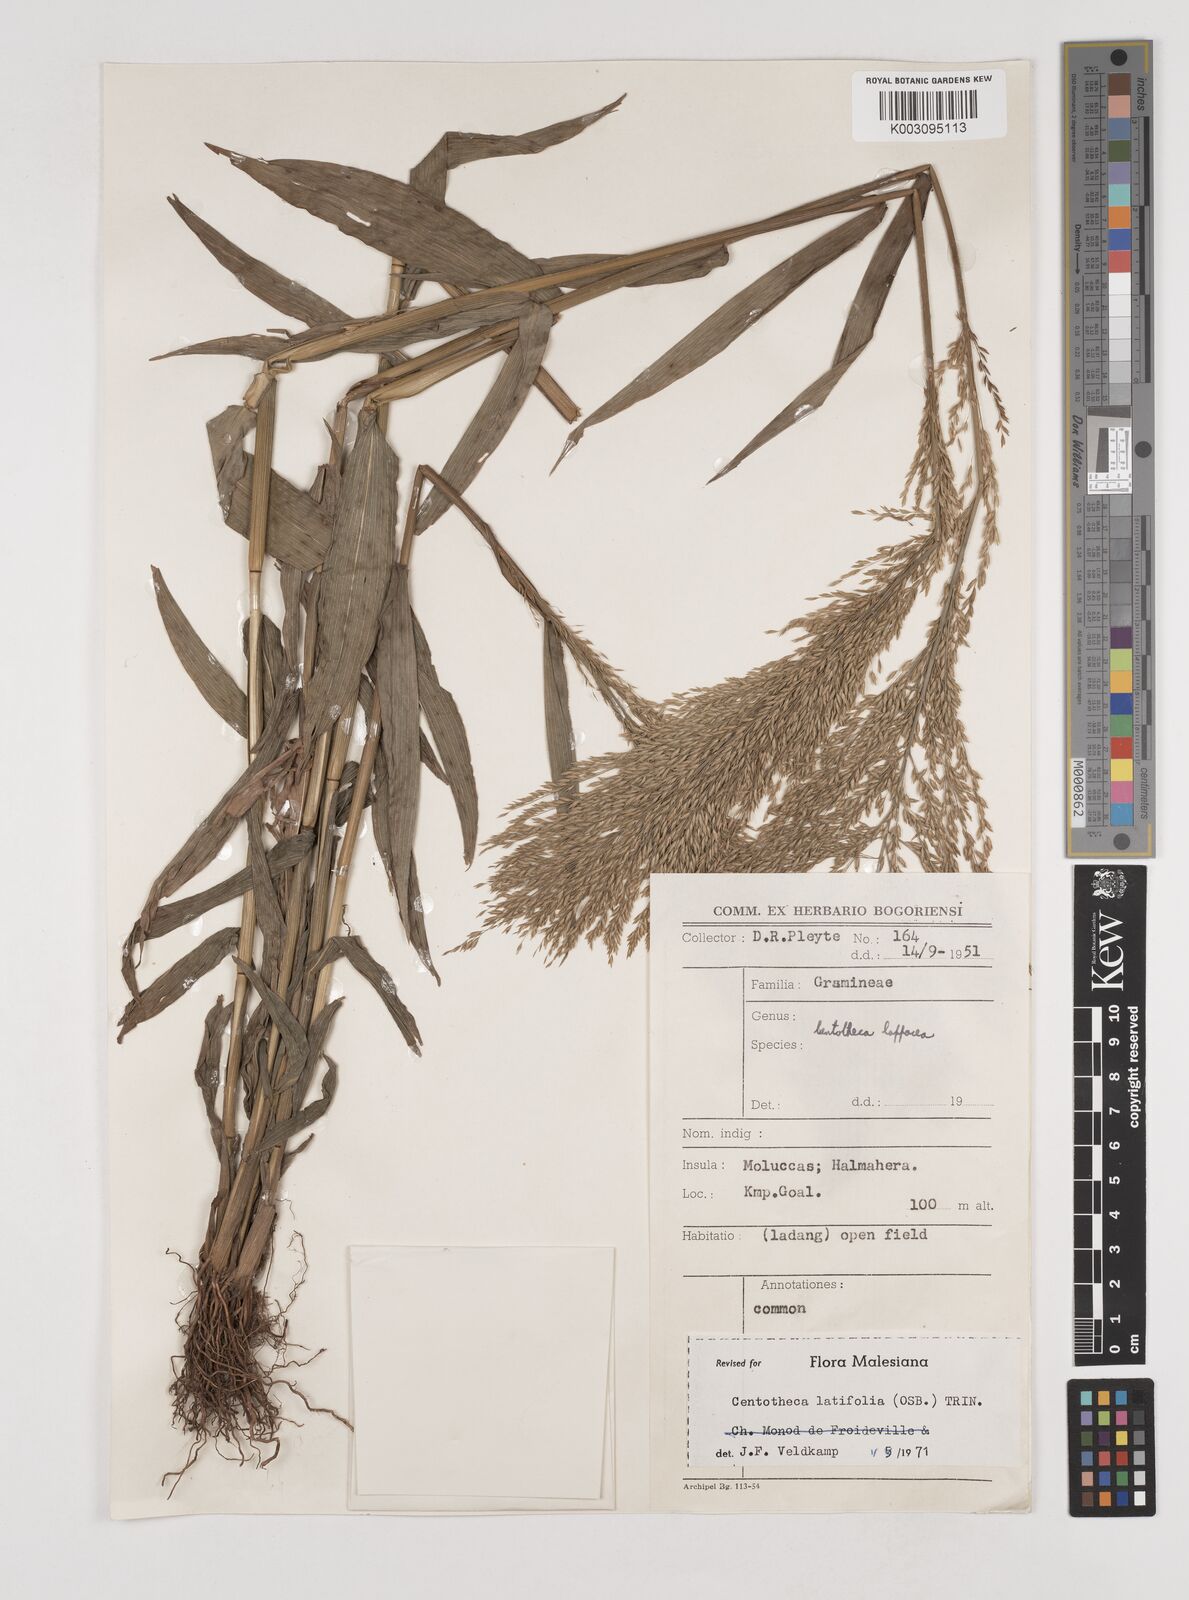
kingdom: Plantae
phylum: Tracheophyta
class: Liliopsida
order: Poales
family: Poaceae
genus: Centotheca
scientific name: Centotheca lappacea
